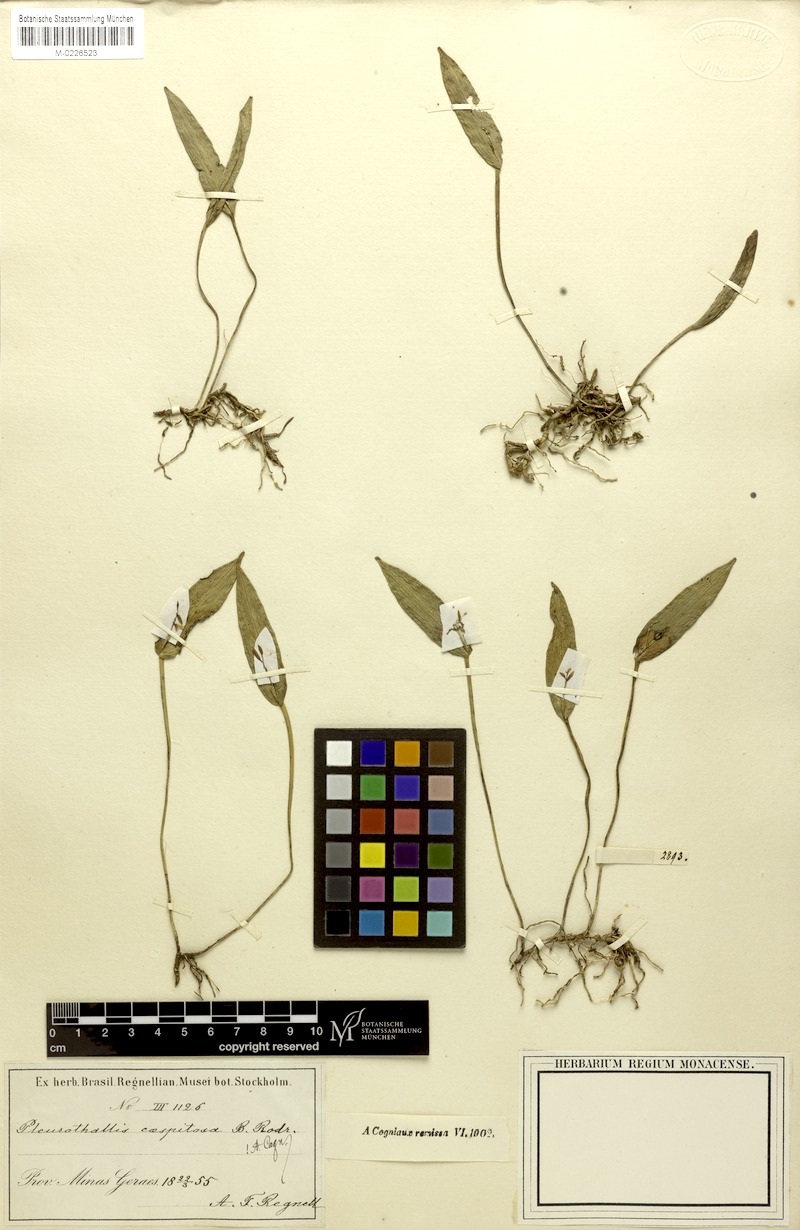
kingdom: Plantae
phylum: Tracheophyta
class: Liliopsida
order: Asparagales
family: Orchidaceae
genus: Acianthera
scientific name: Acianthera luteola
